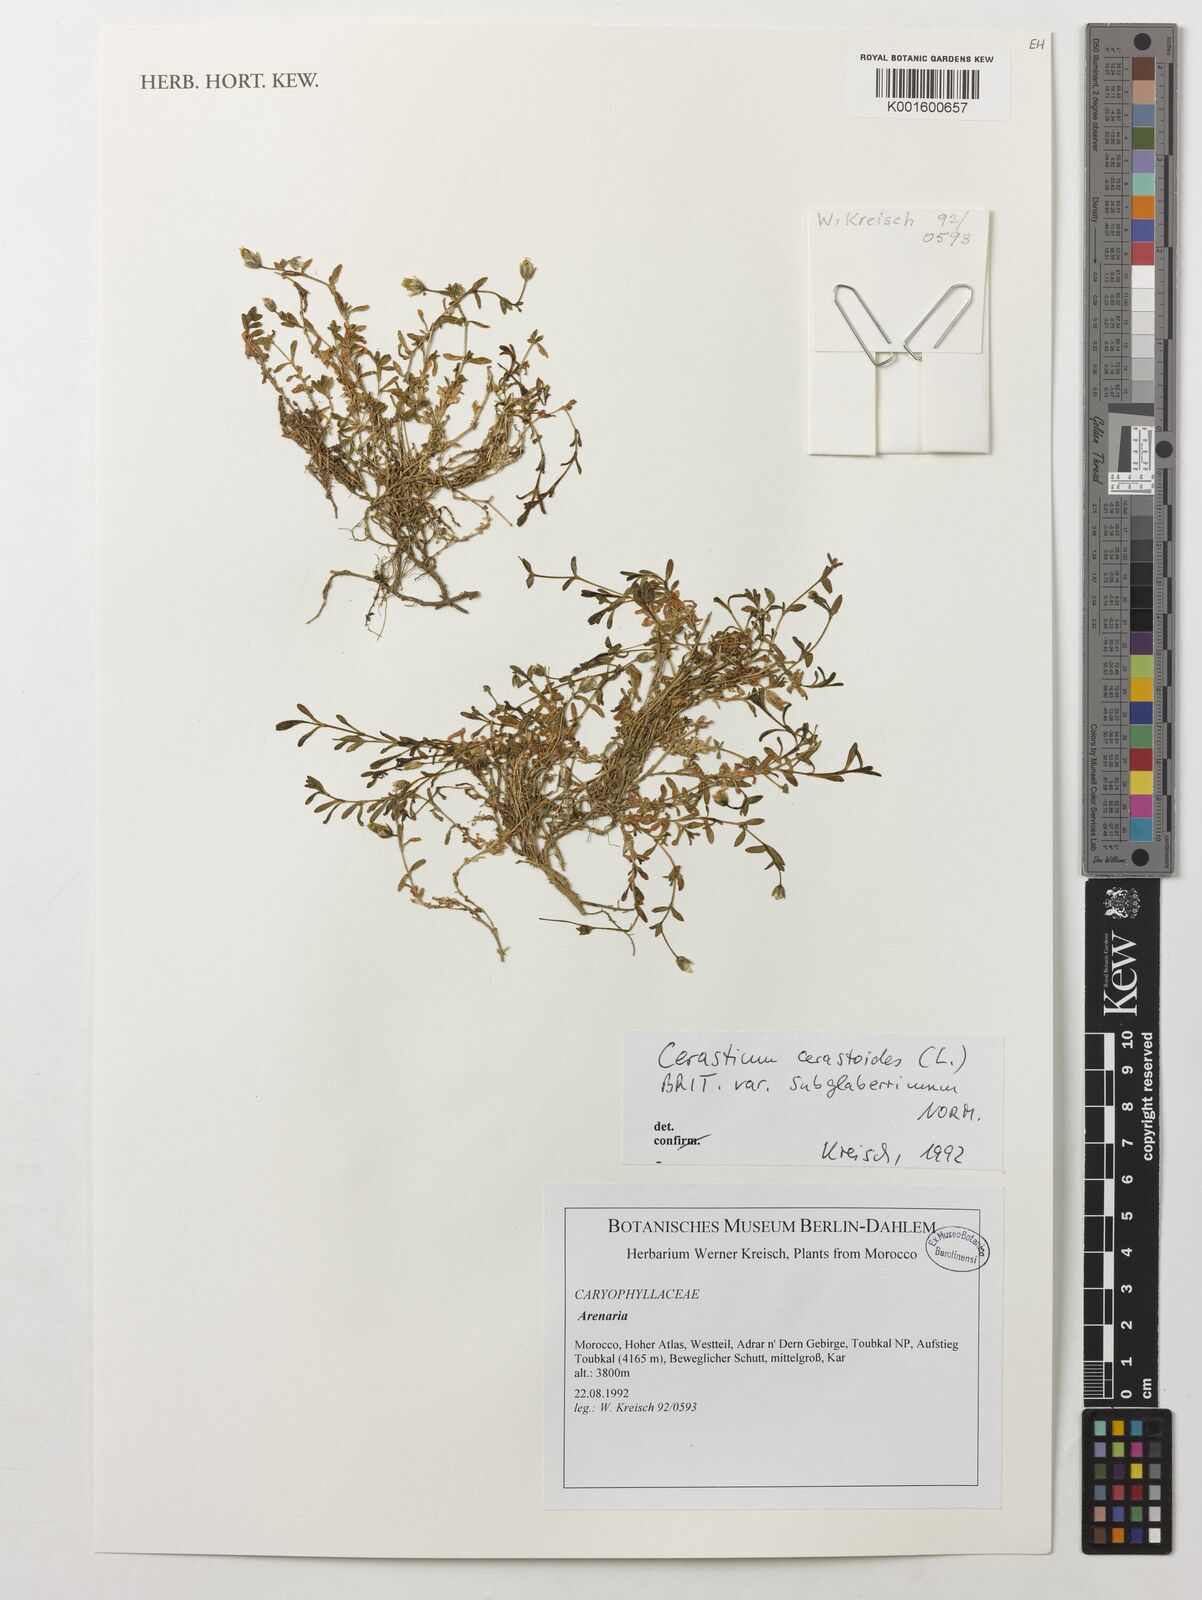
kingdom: Plantae
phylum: Tracheophyta
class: Magnoliopsida
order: Caryophyllales
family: Caryophyllaceae
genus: Dichodon
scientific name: Dichodon cerastoides
